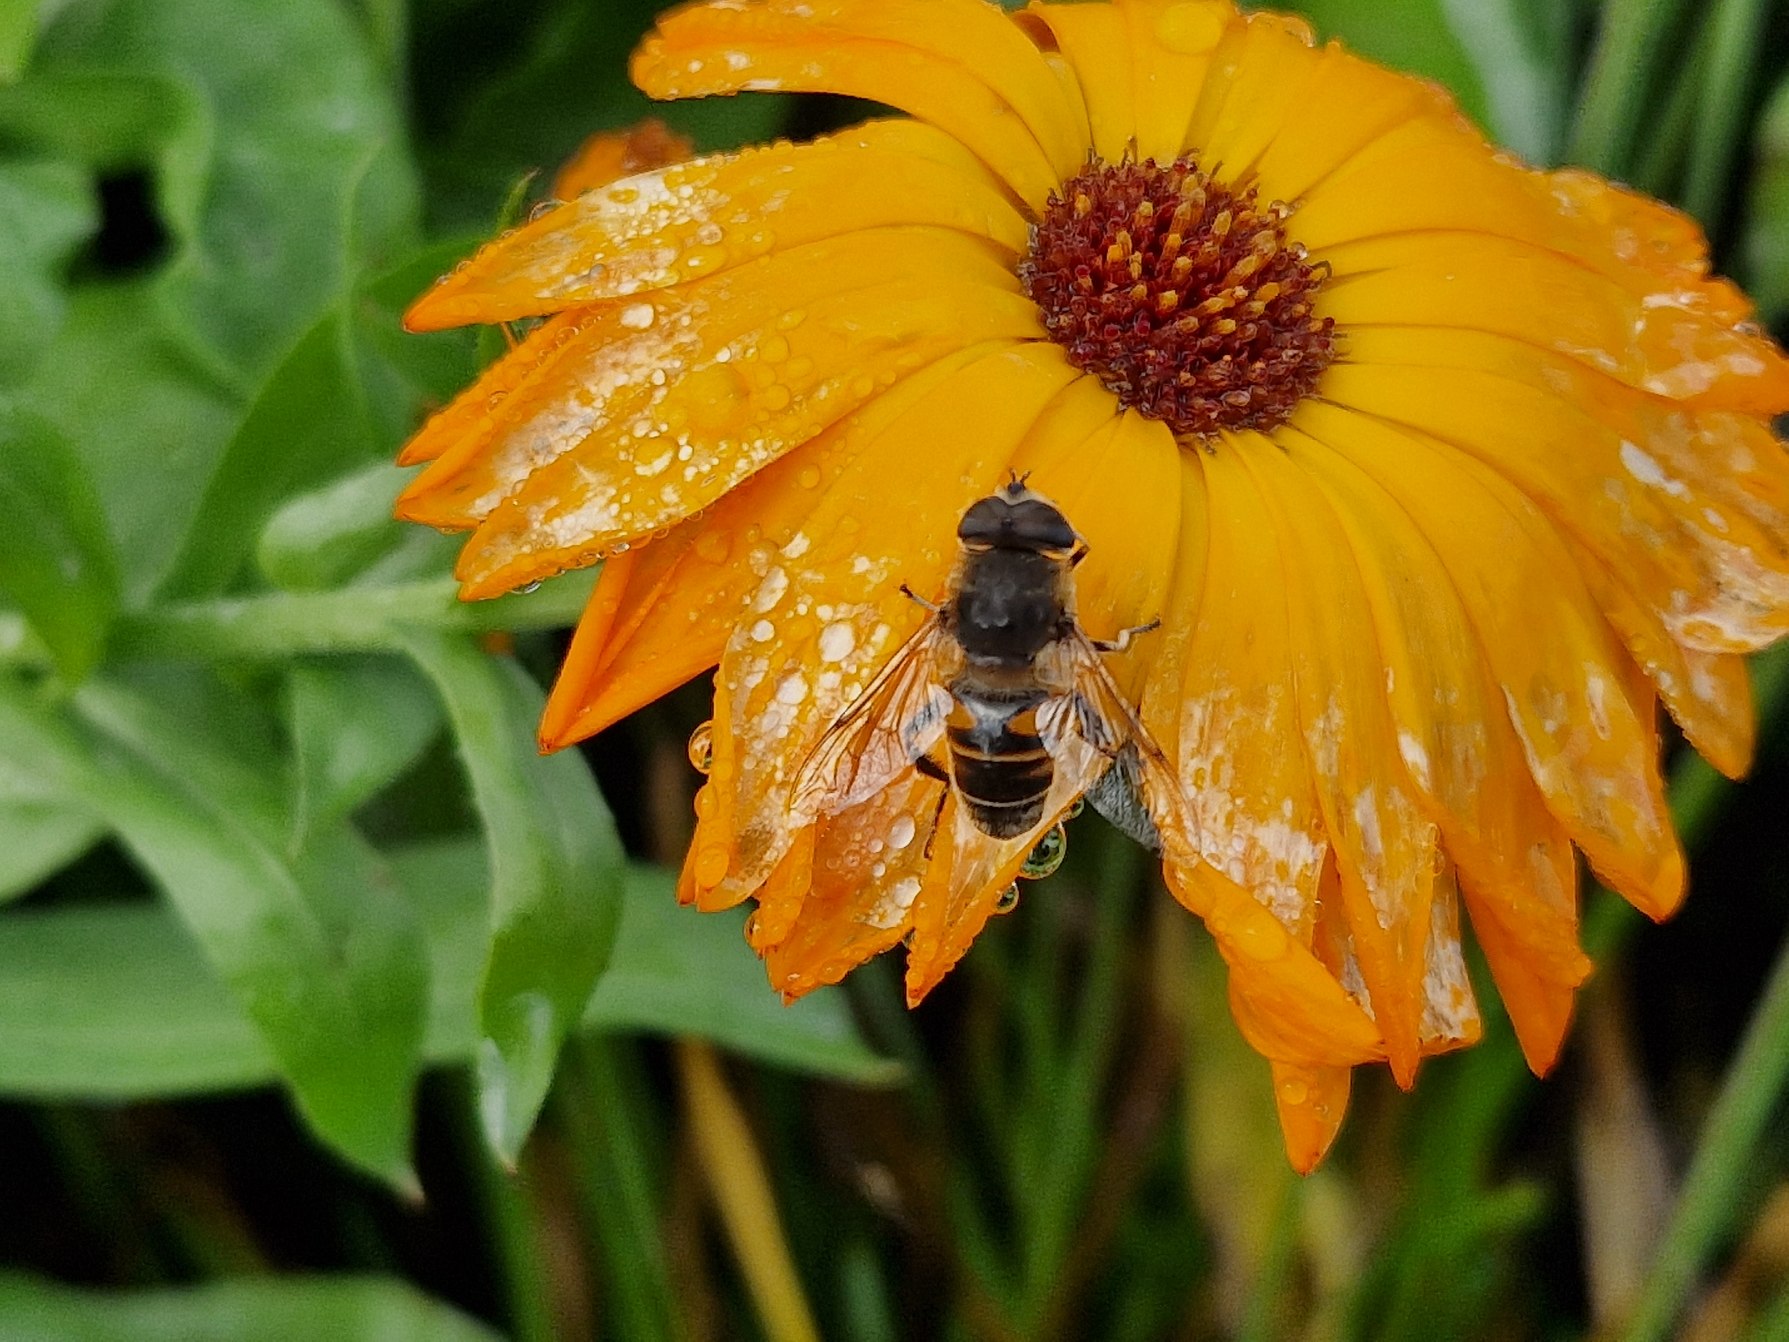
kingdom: Animalia
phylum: Arthropoda
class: Insecta
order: Diptera
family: Syrphidae
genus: Eristalis
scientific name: Eristalis tenax
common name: Droneflue
